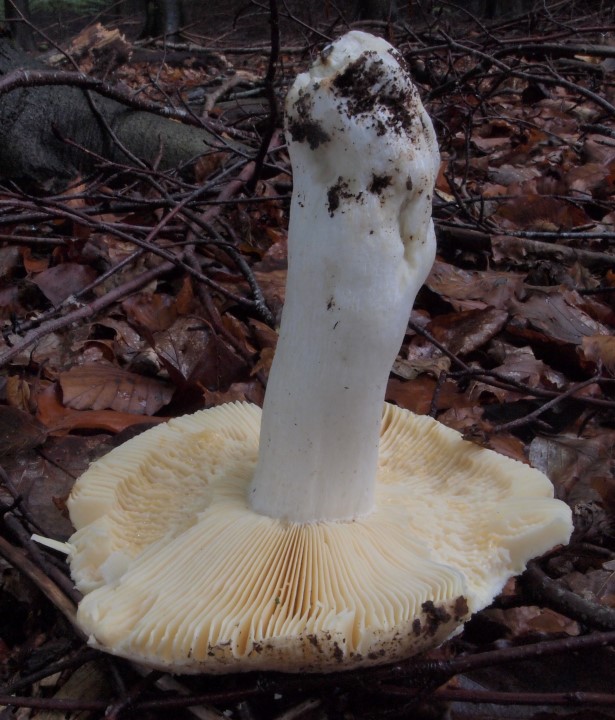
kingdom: Fungi
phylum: Basidiomycota
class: Agaricomycetes
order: Russulales
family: Russulaceae
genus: Russula
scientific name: Russula romellii
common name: romells skørhat
